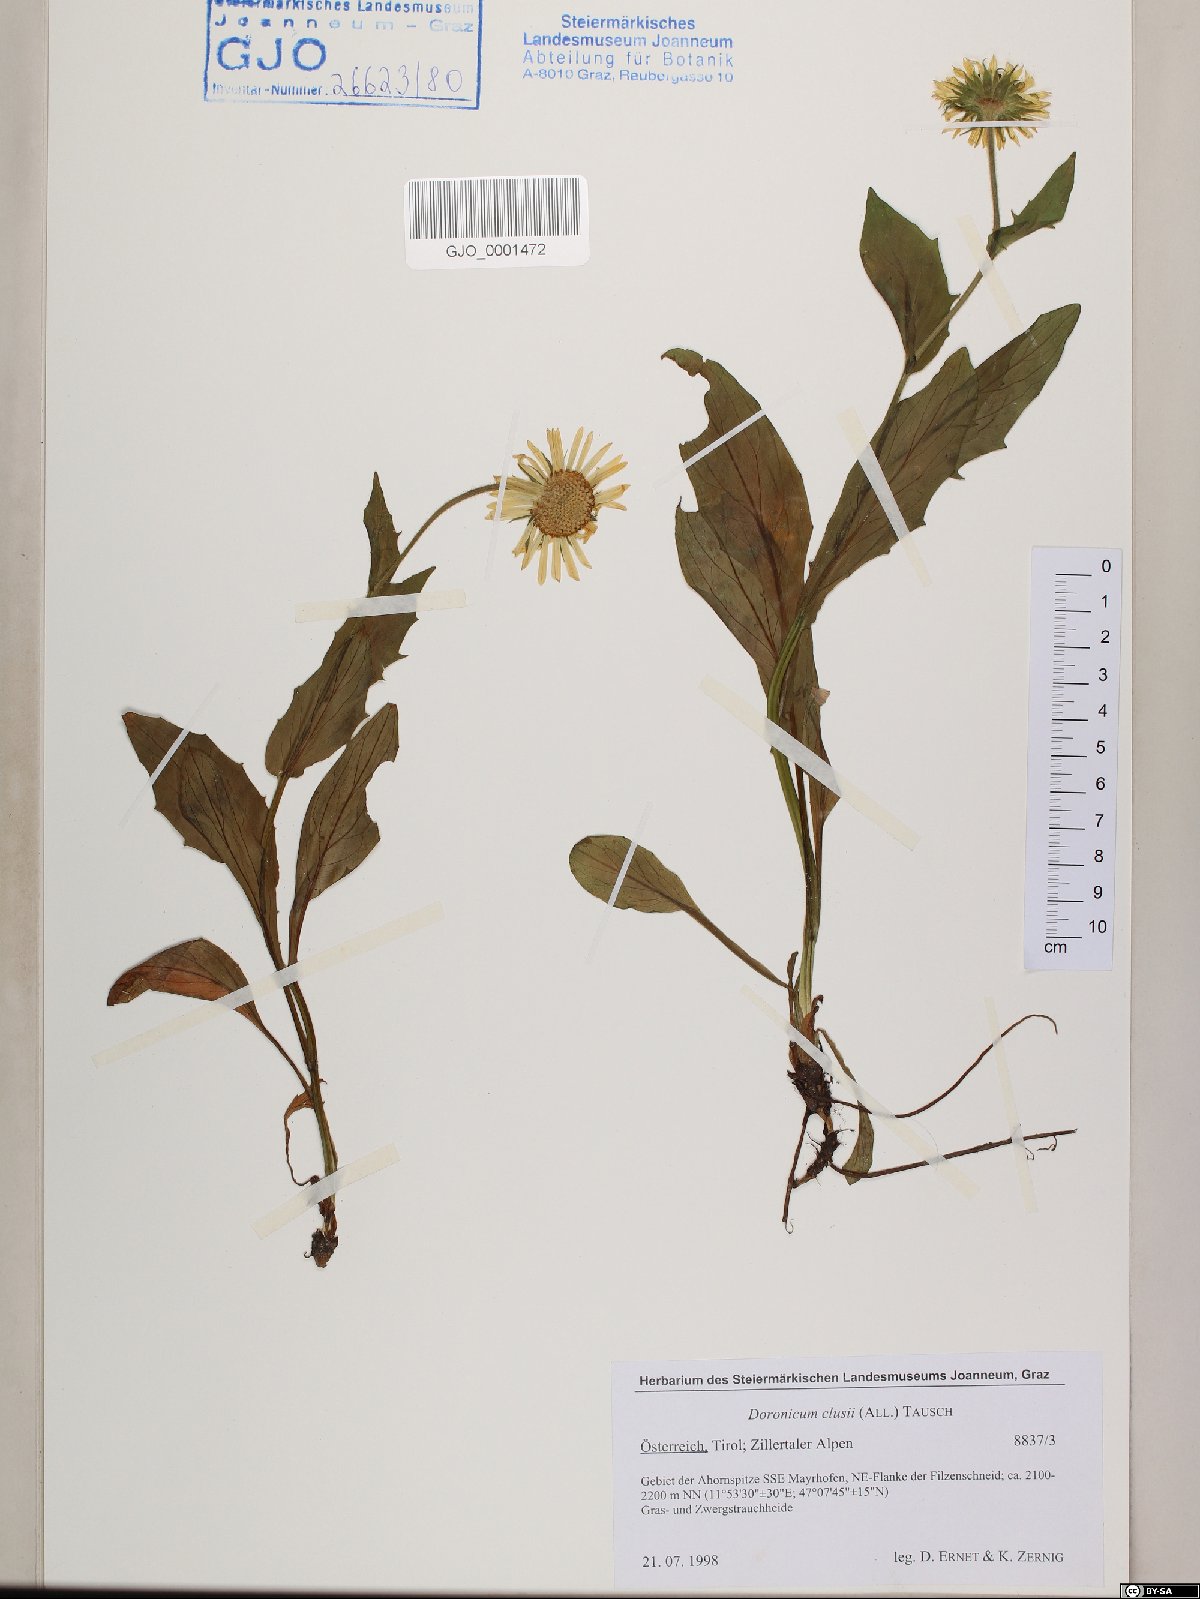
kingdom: Plantae
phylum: Tracheophyta
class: Magnoliopsida
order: Asterales
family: Asteraceae
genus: Doronicum
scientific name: Doronicum clusii
